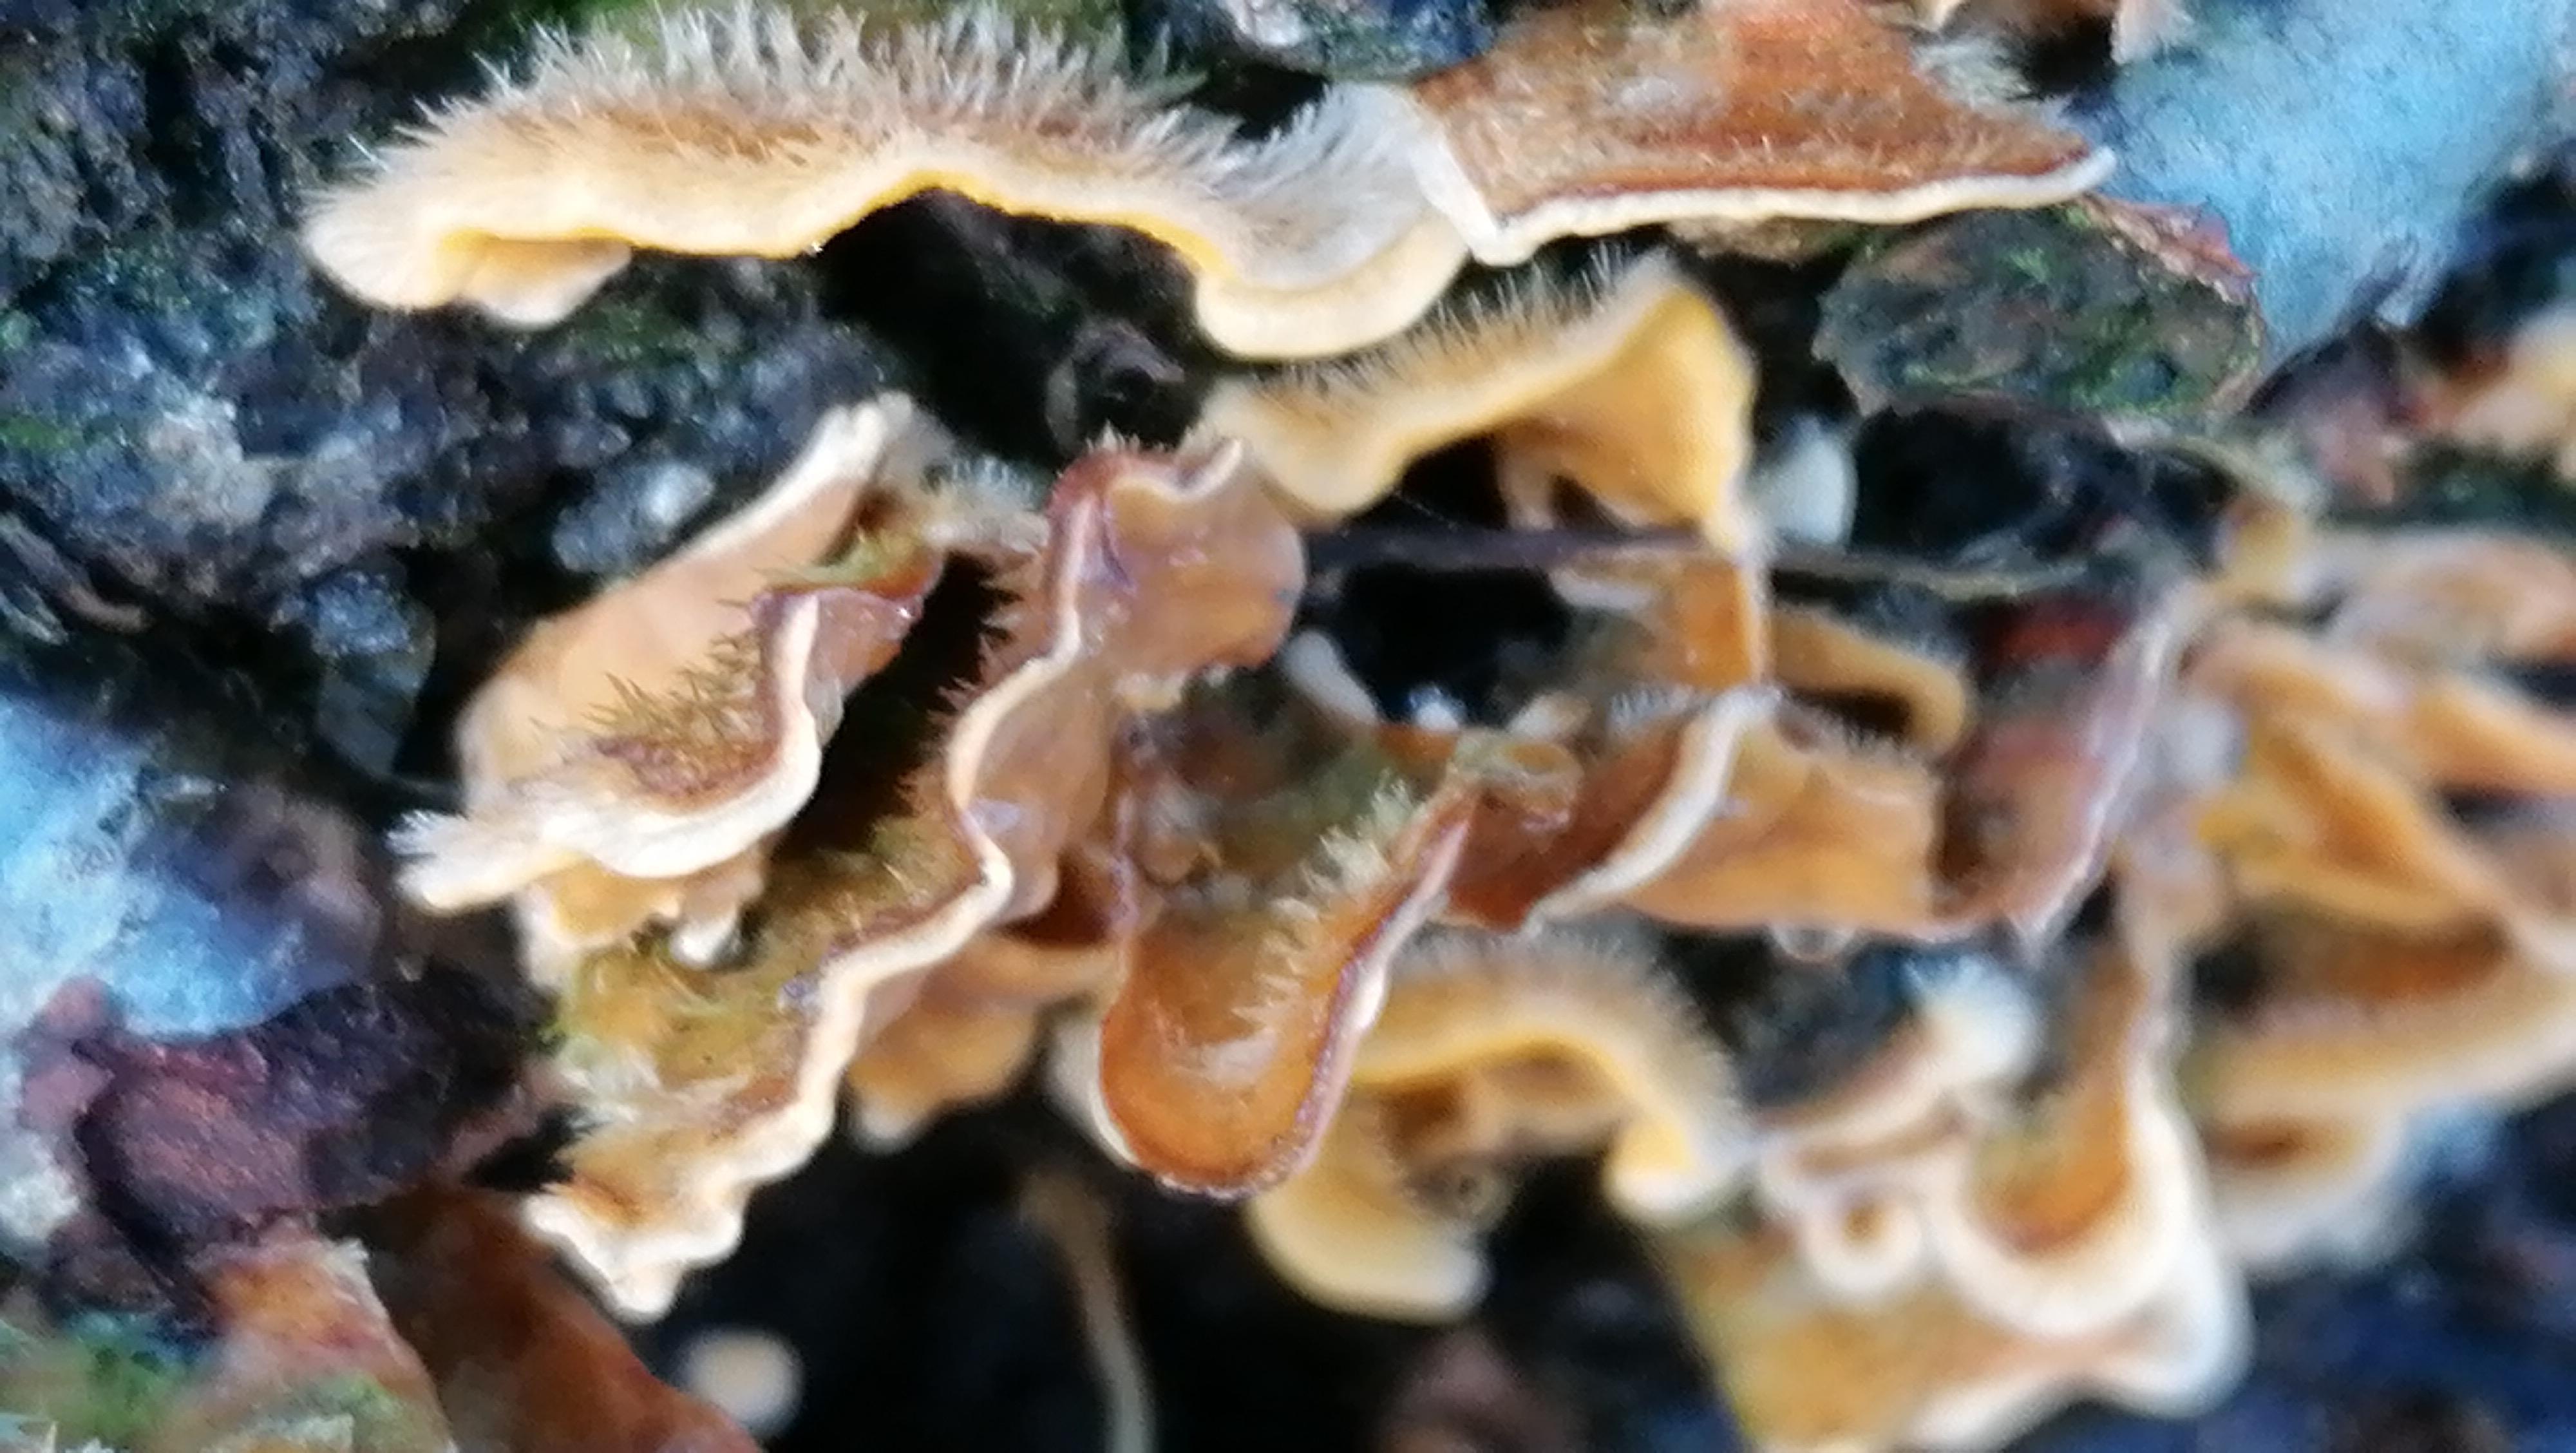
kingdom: Fungi
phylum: Basidiomycota
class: Agaricomycetes
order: Russulales
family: Stereaceae
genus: Stereum
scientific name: Stereum hirsutum
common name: håret lædersvamp
